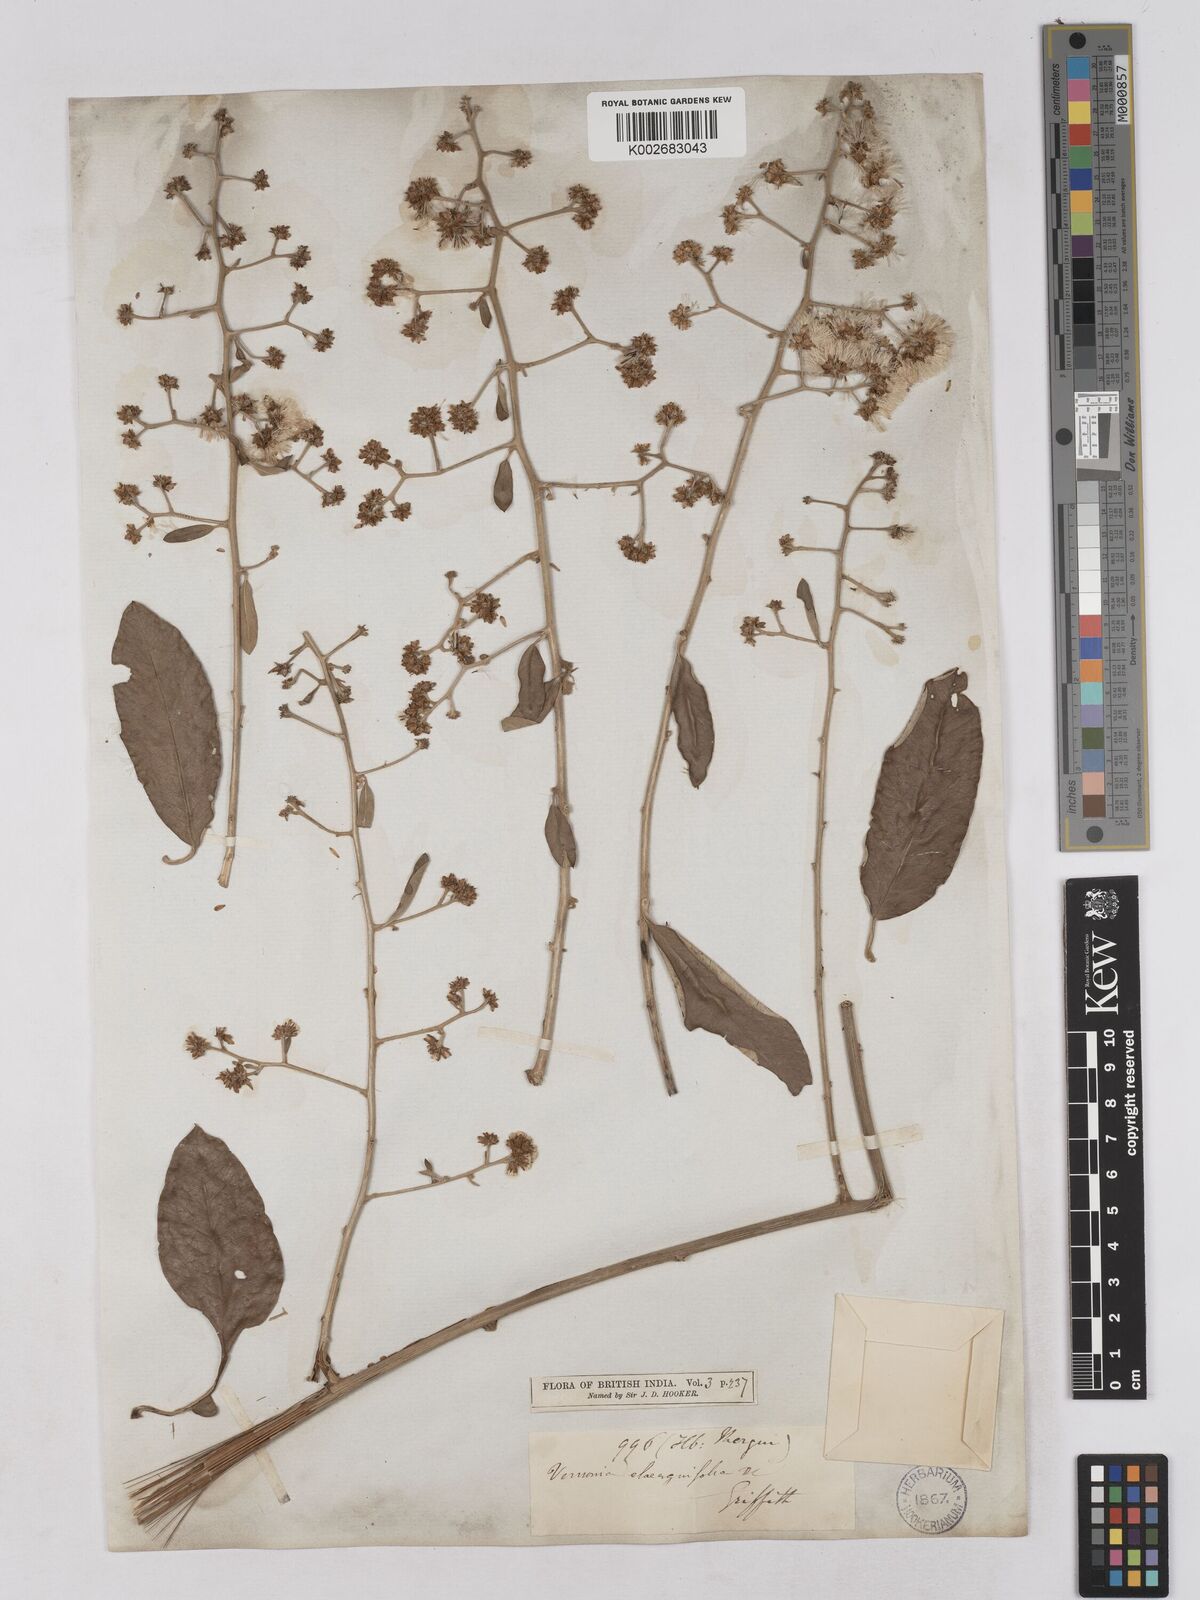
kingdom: Plantae
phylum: Tracheophyta
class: Magnoliopsida
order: Asterales
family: Asteraceae
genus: Tarlmounia
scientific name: Tarlmounia elliptica
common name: Kheua sa lot
